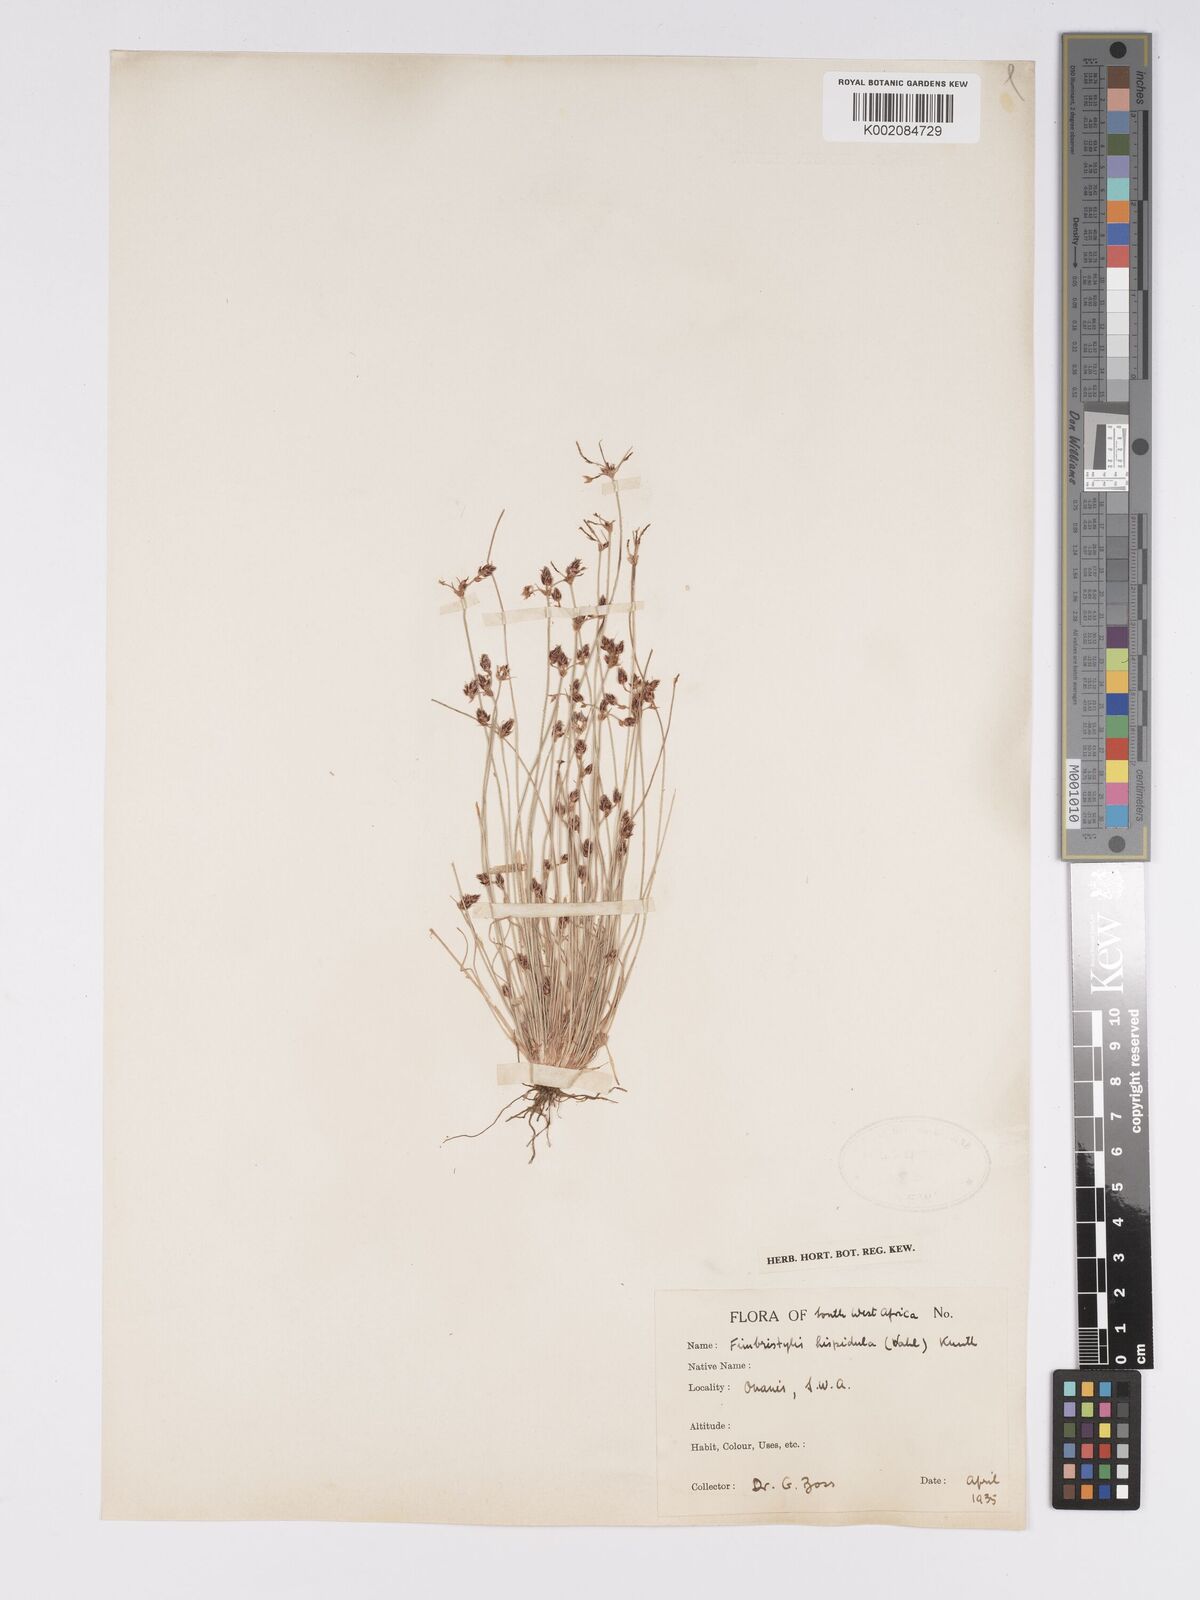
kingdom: Plantae
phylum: Tracheophyta
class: Liliopsida
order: Poales
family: Cyperaceae
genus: Bulbostylis
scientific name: Bulbostylis hispidula
